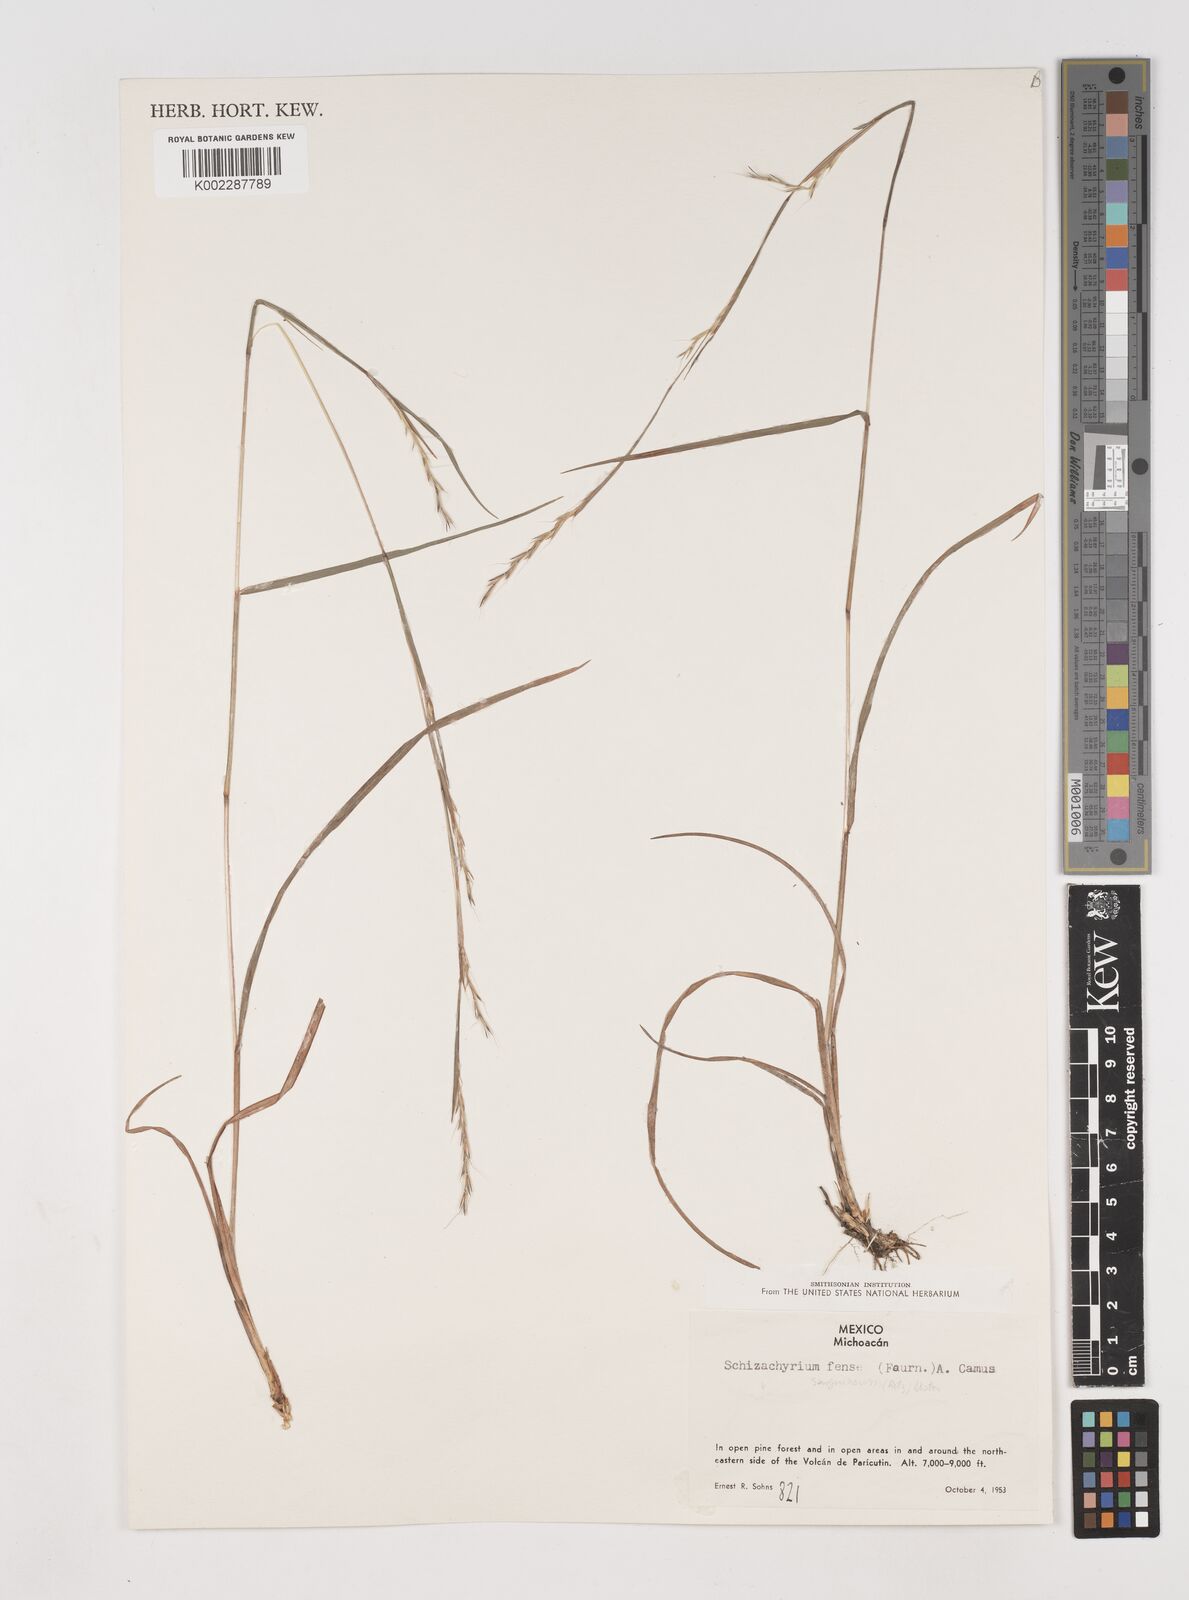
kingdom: Plantae
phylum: Tracheophyta
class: Liliopsida
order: Poales
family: Poaceae
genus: Schizachyrium
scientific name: Schizachyrium sanguineum
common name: Crimson bluestem
